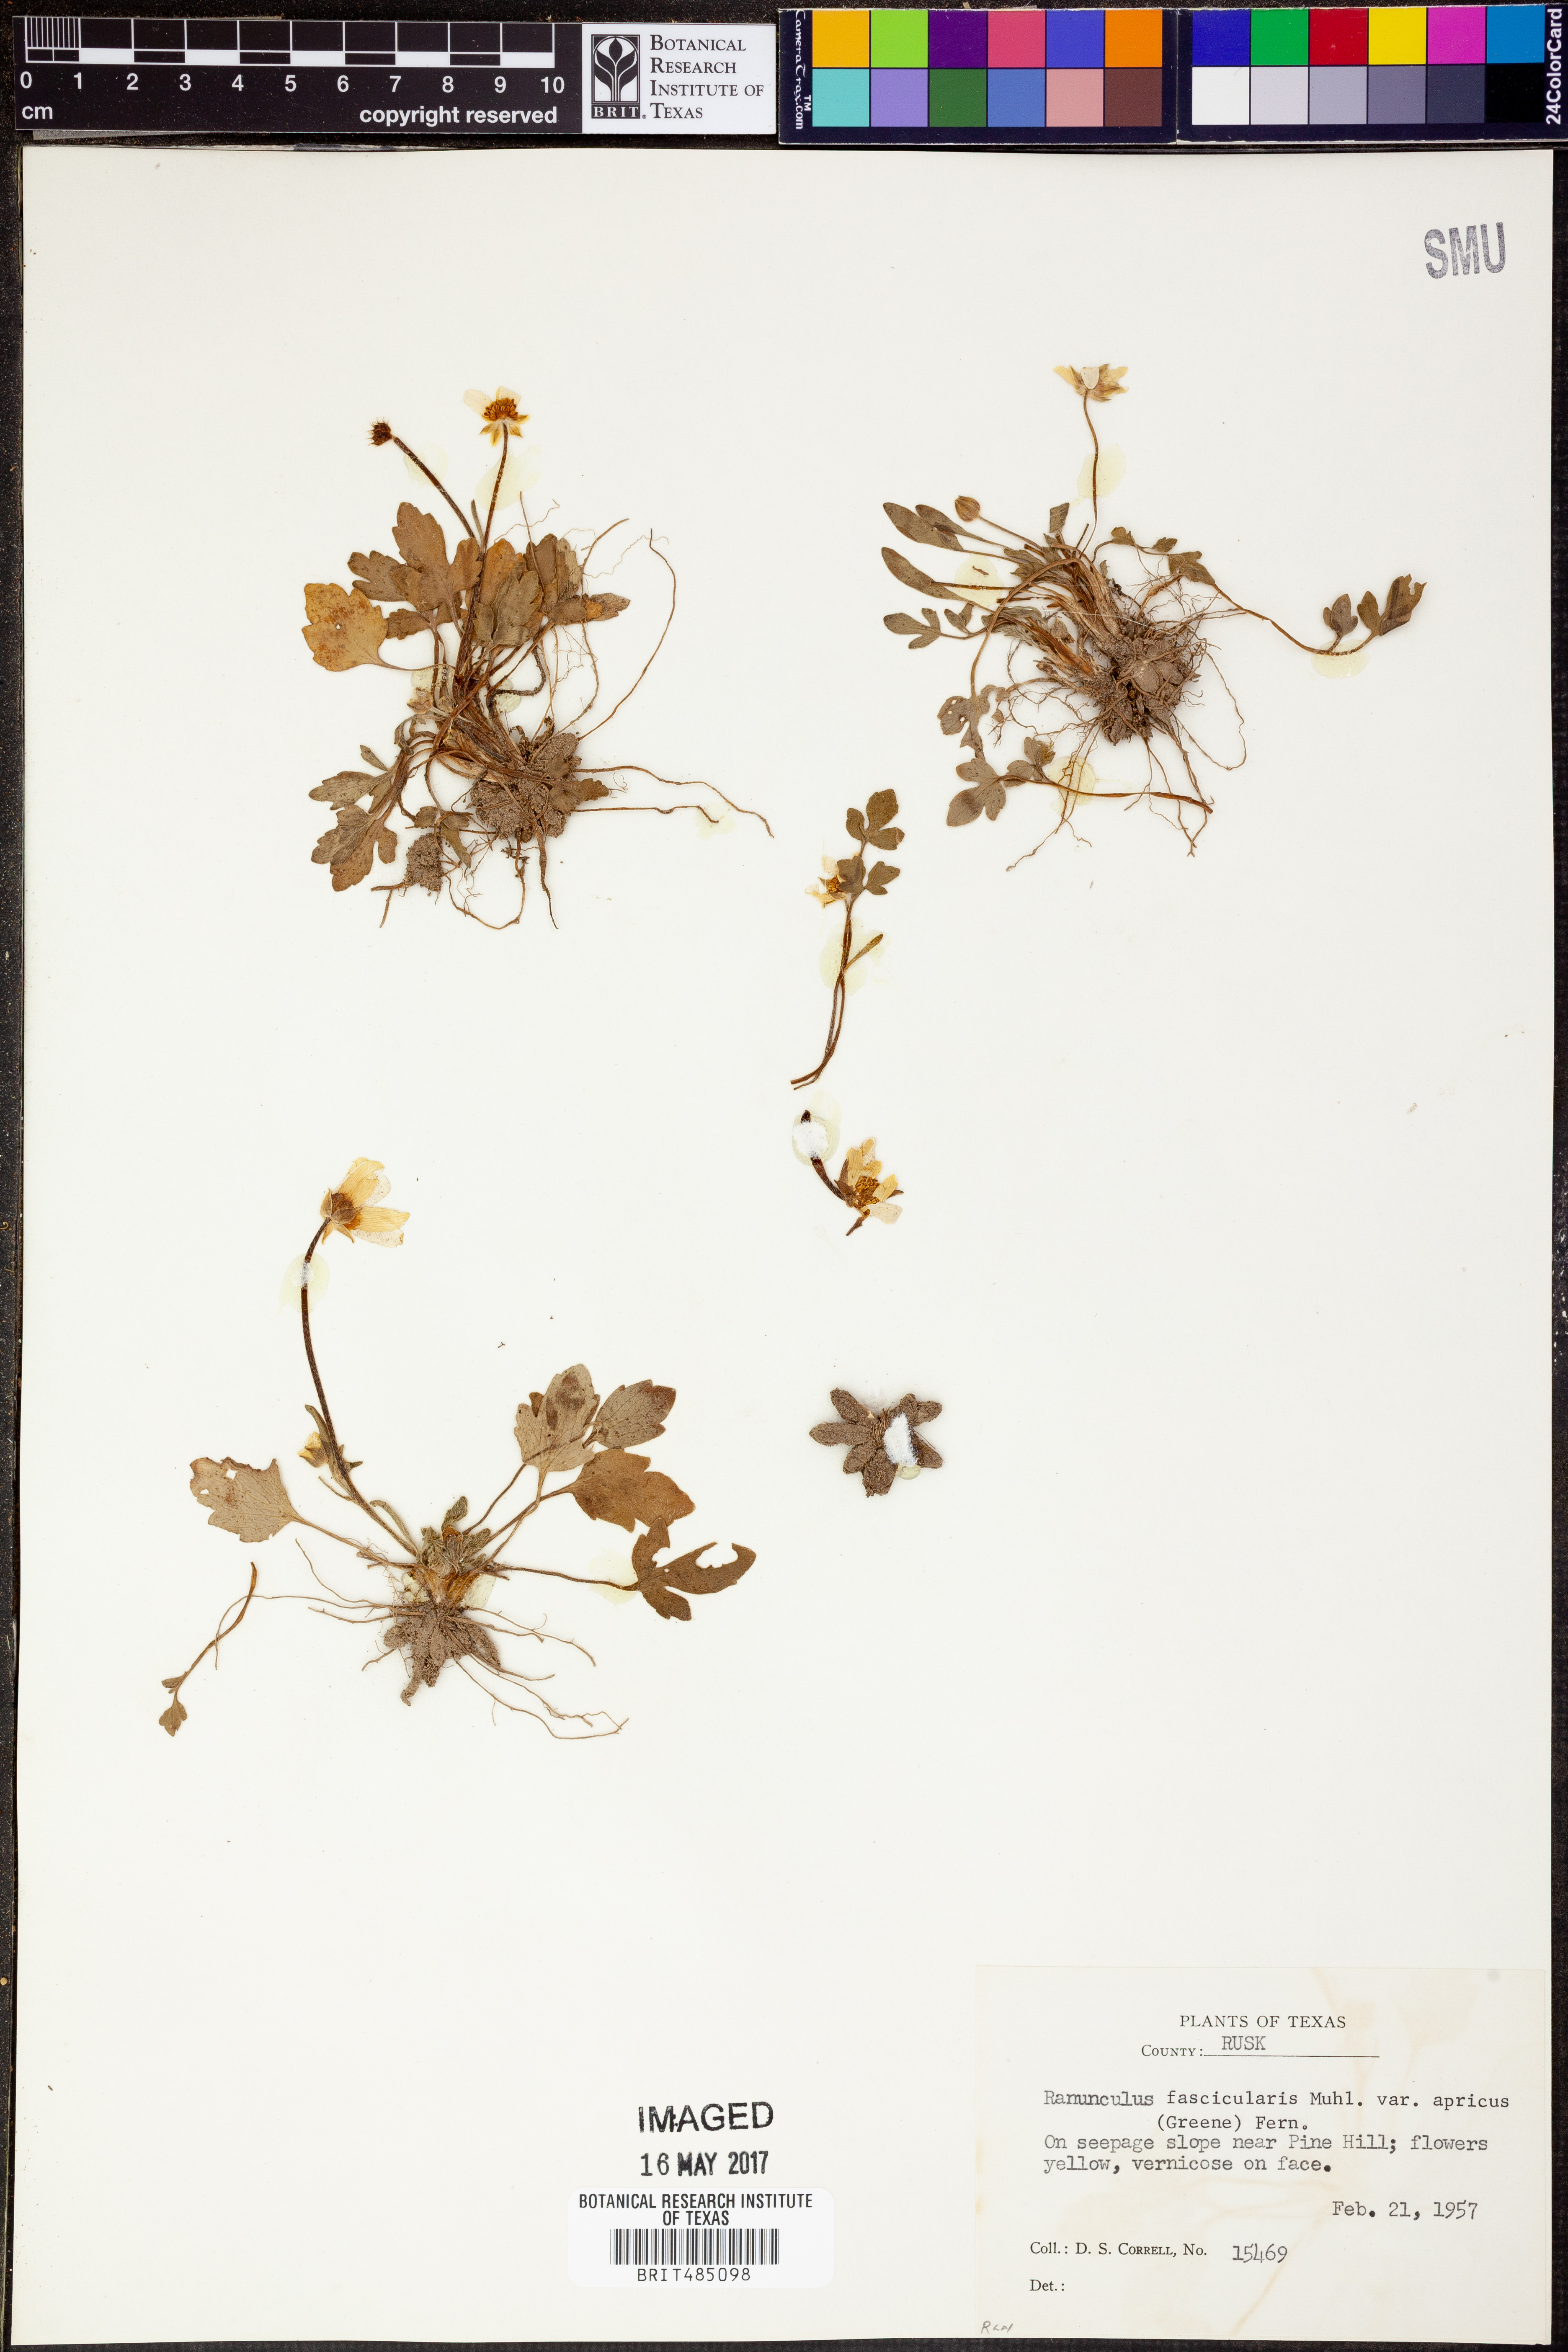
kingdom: Plantae
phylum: Tracheophyta
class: Magnoliopsida
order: Ranunculales
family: Ranunculaceae
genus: Ranunculus
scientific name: Ranunculus fascicularis
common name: Early buttercup
